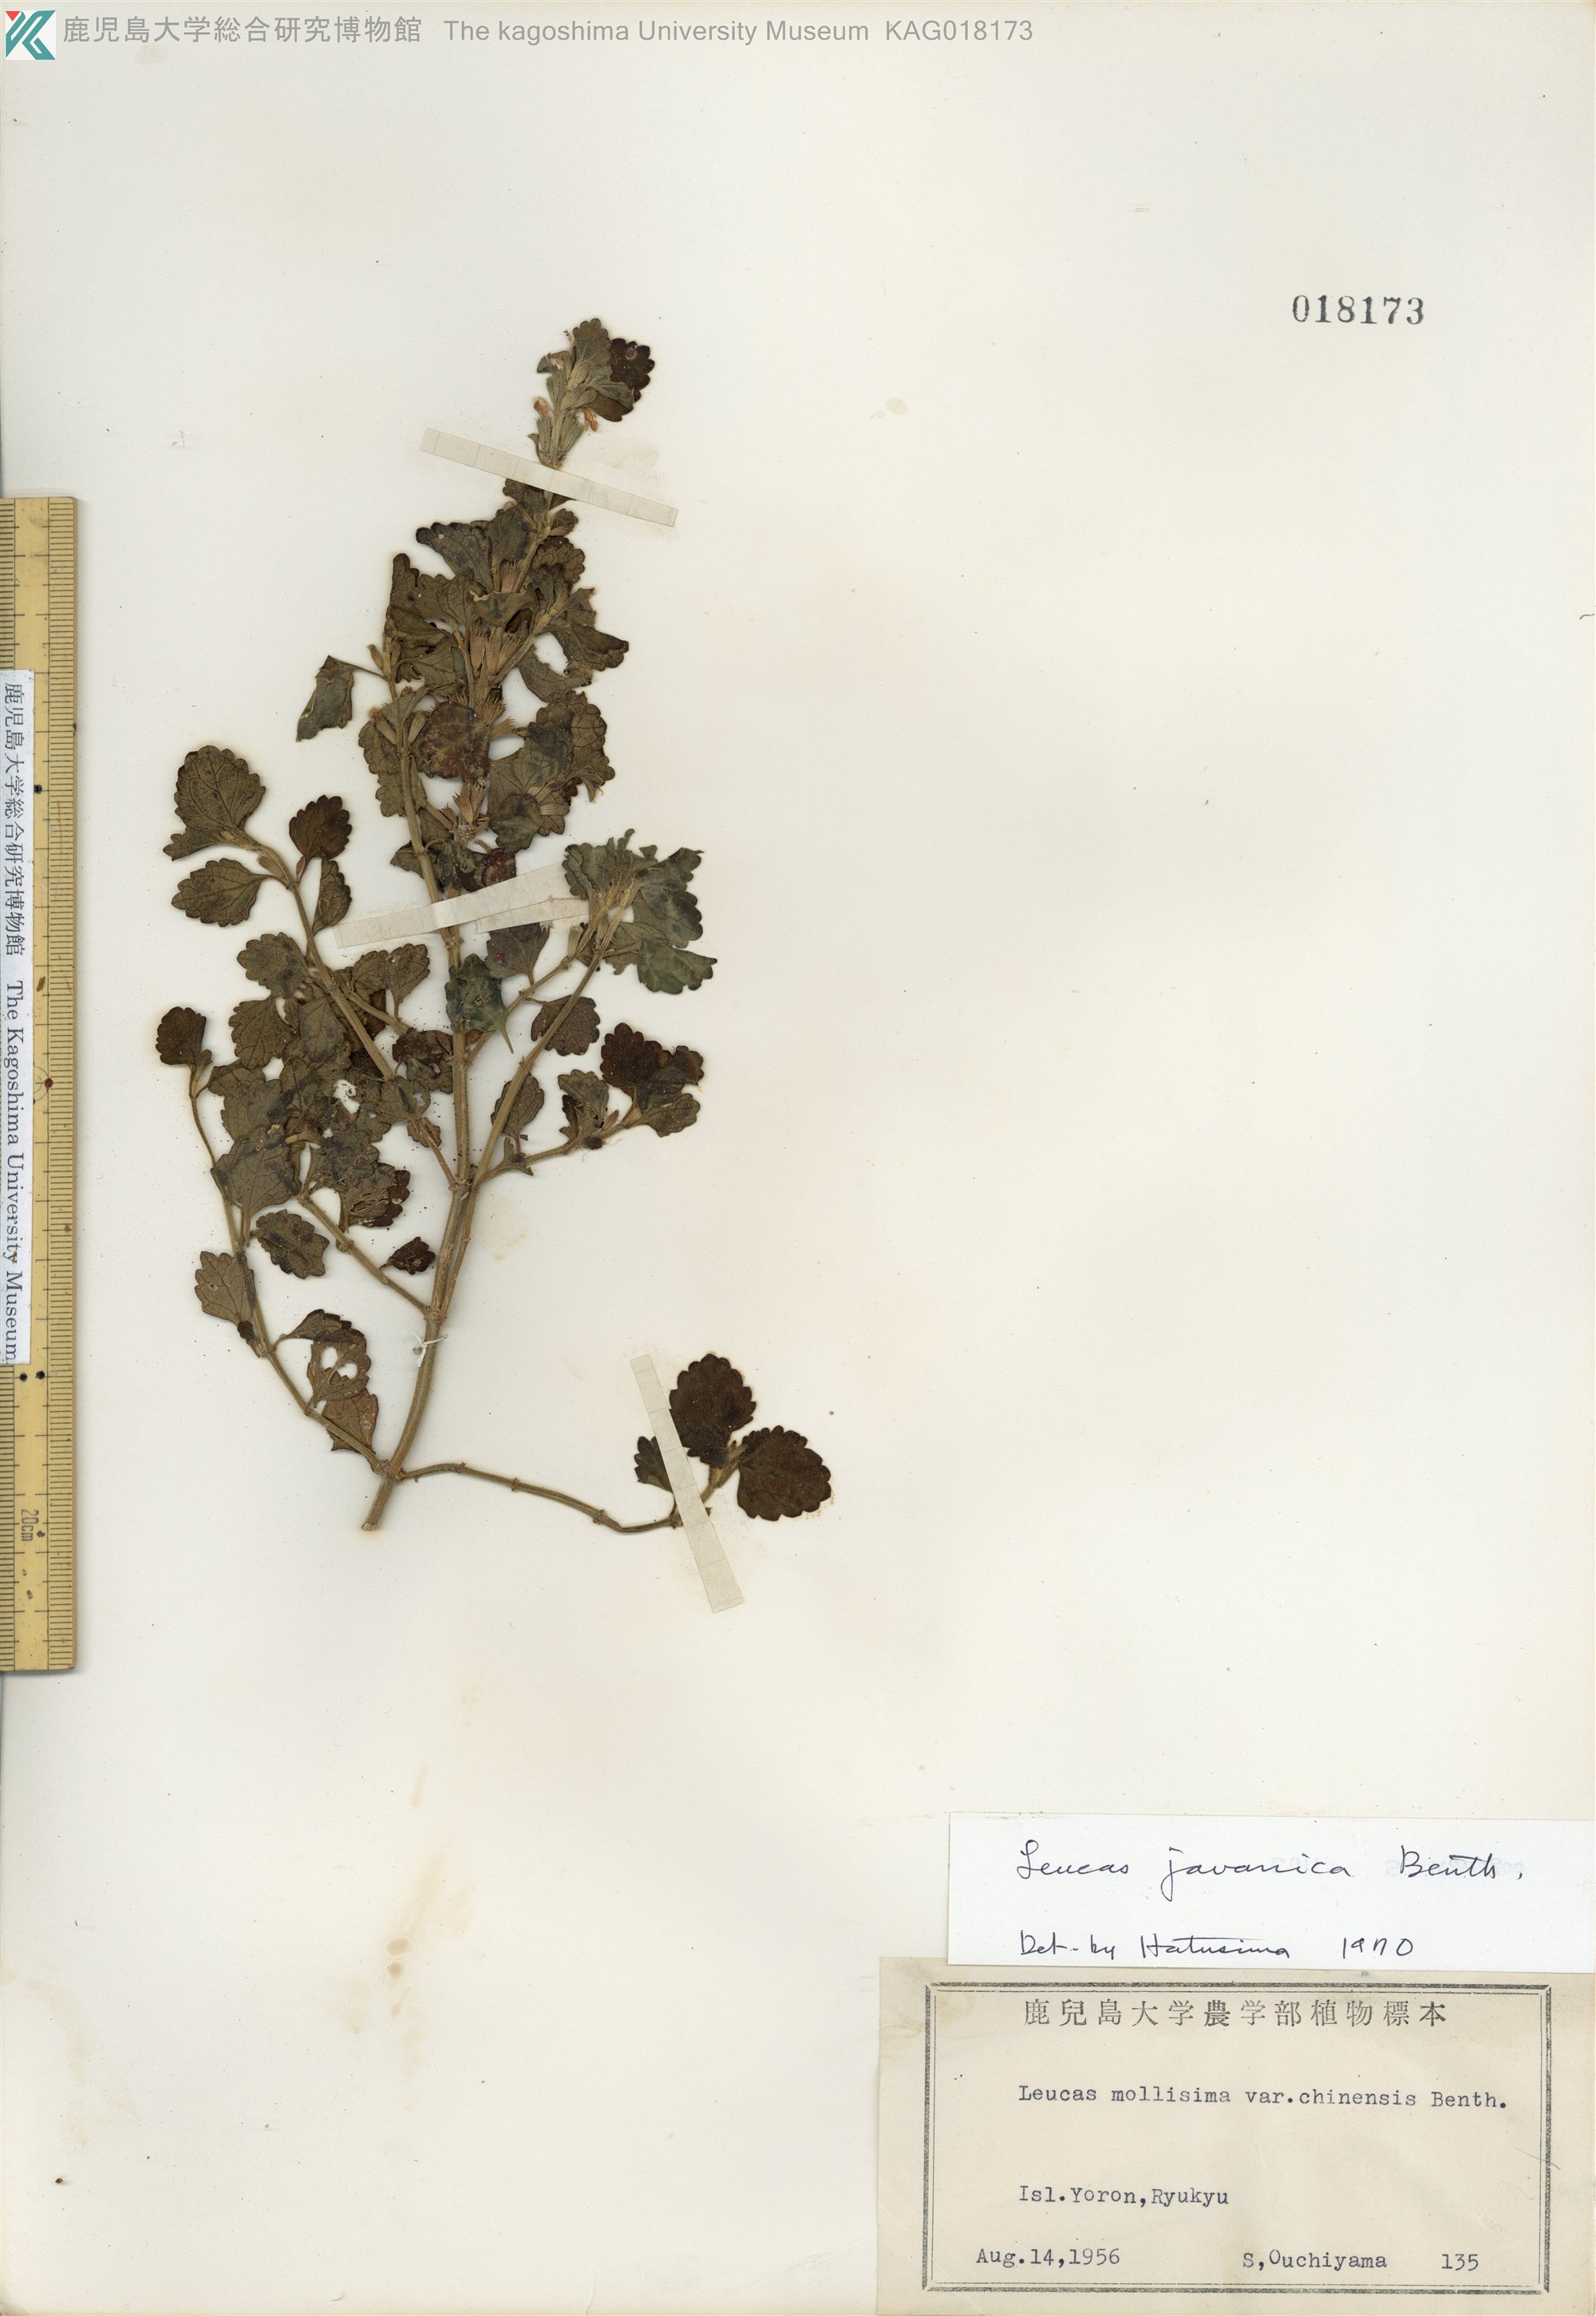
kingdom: Plantae
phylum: Tracheophyta
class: Magnoliopsida
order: Lamiales
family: Lamiaceae
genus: Leucas
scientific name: Leucas chinensis
